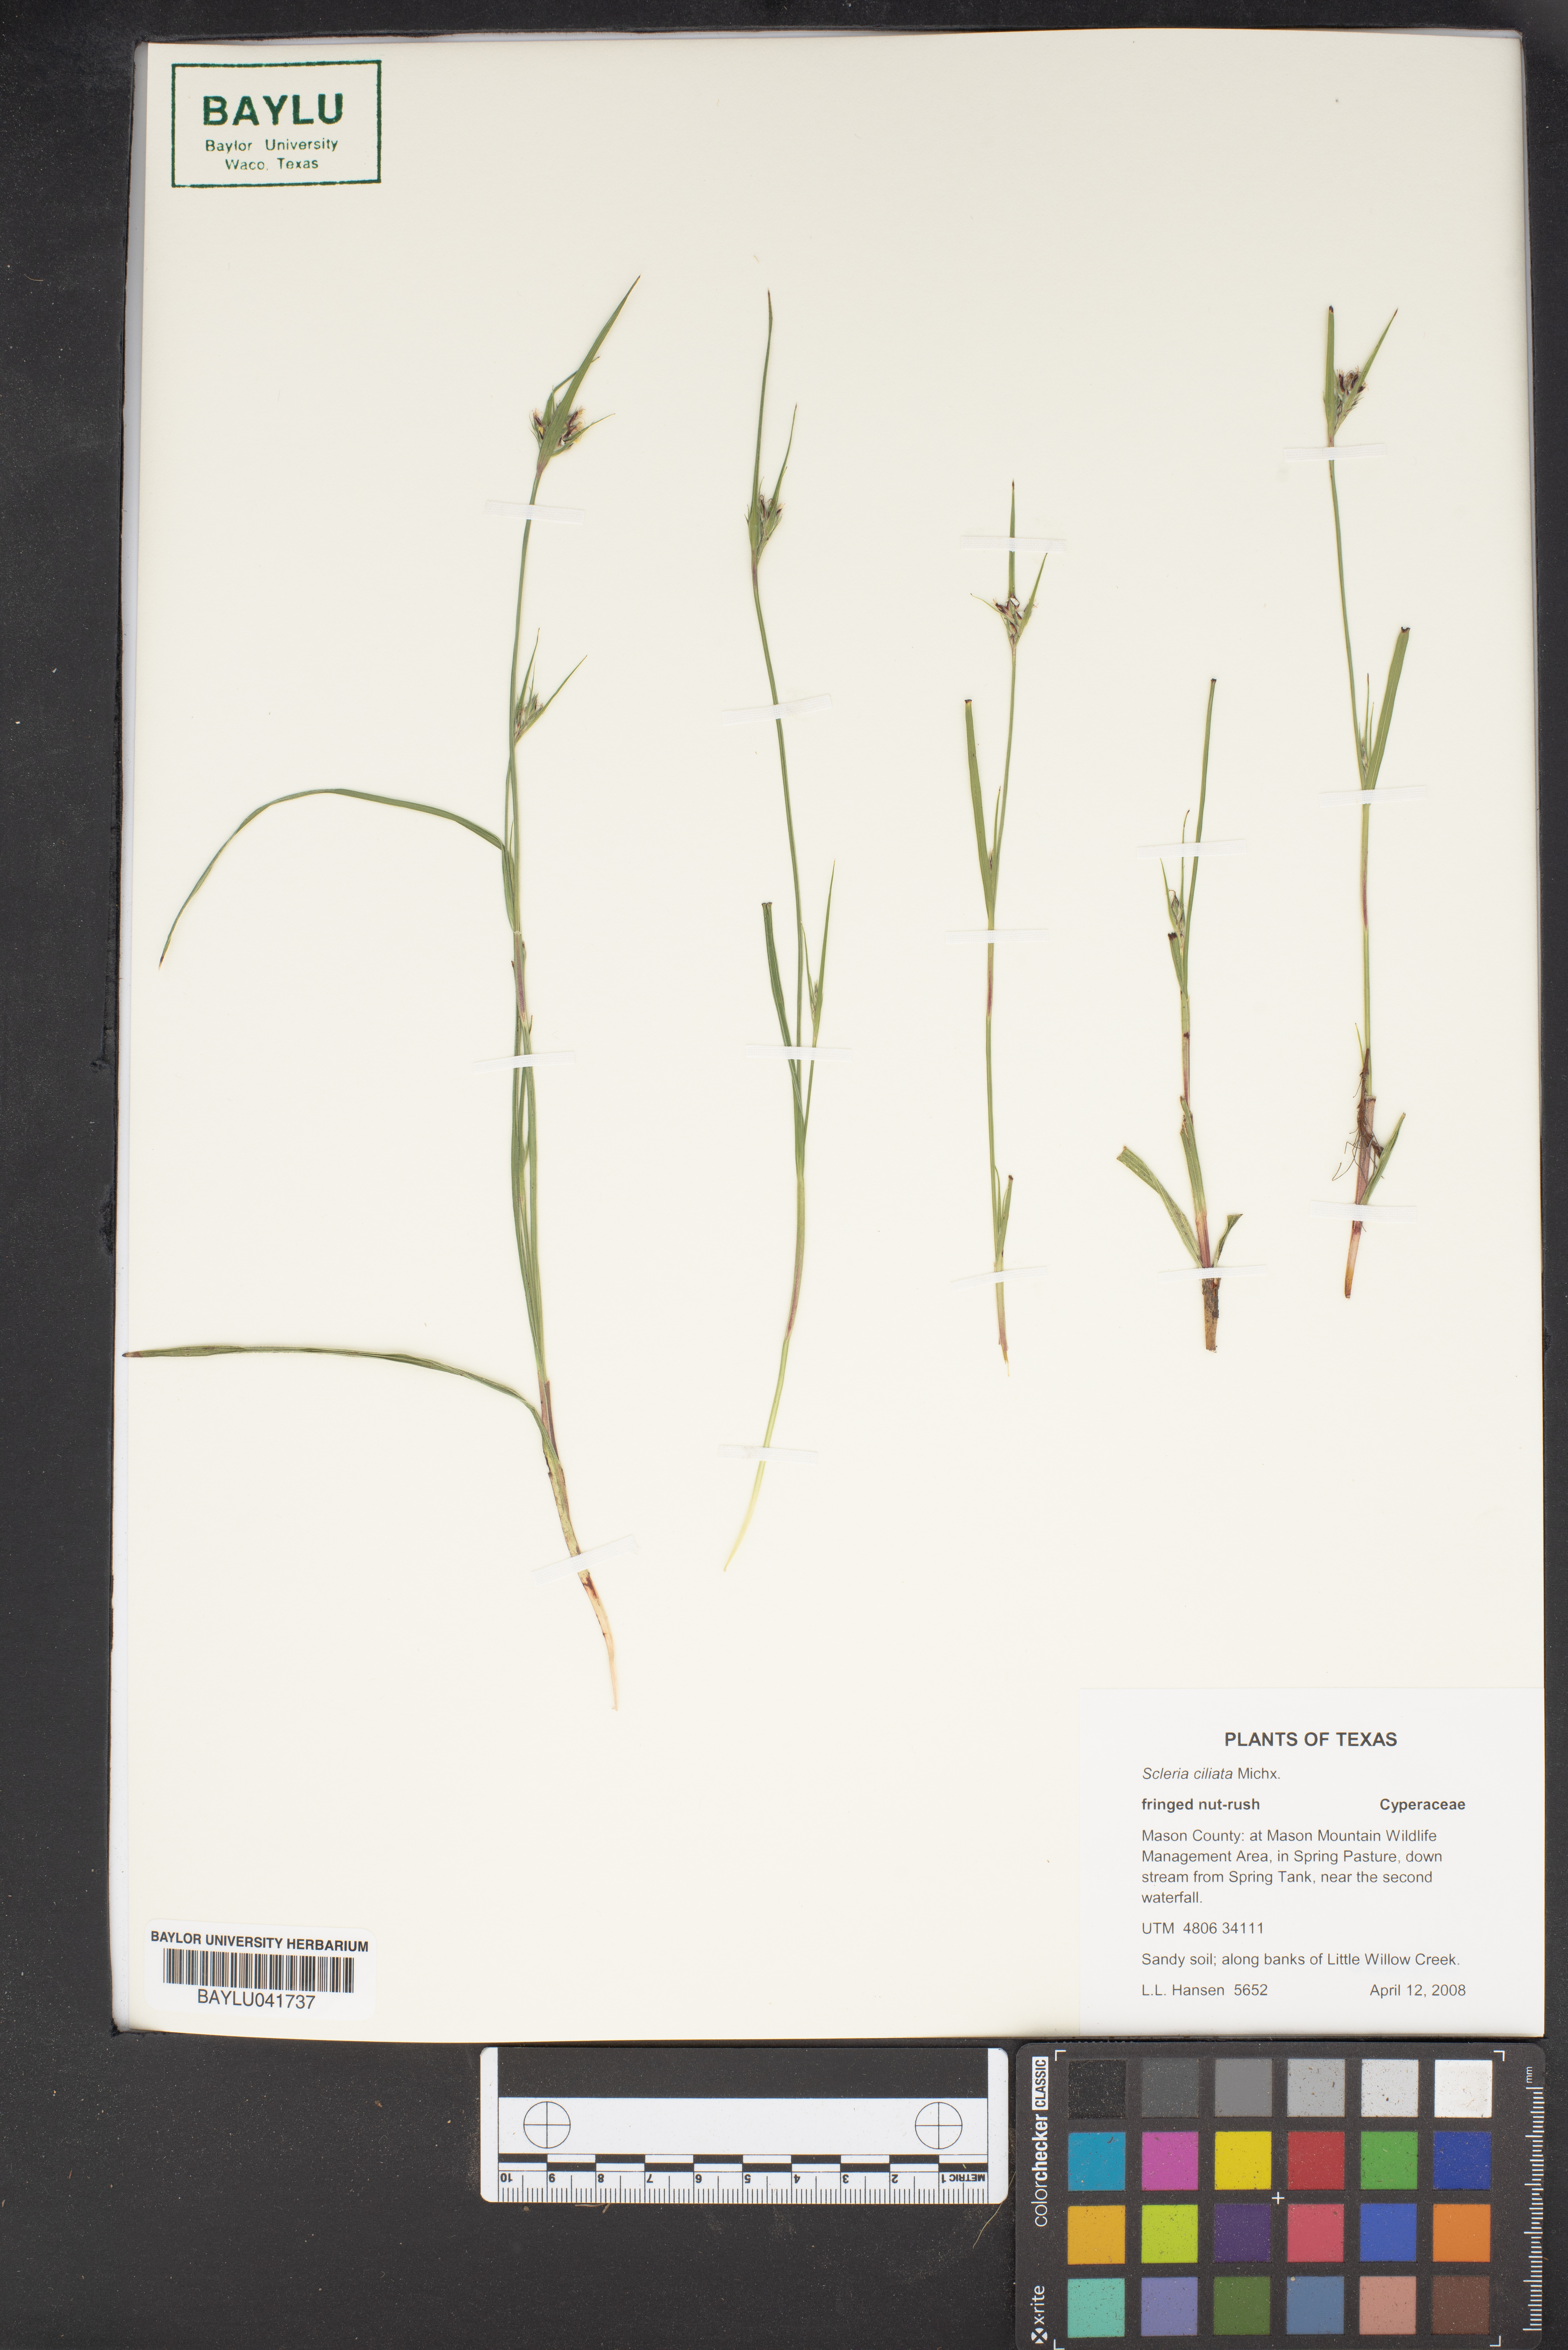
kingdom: Plantae
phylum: Tracheophyta
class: Liliopsida
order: Poales
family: Cyperaceae
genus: Scleria
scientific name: Scleria ciliata
